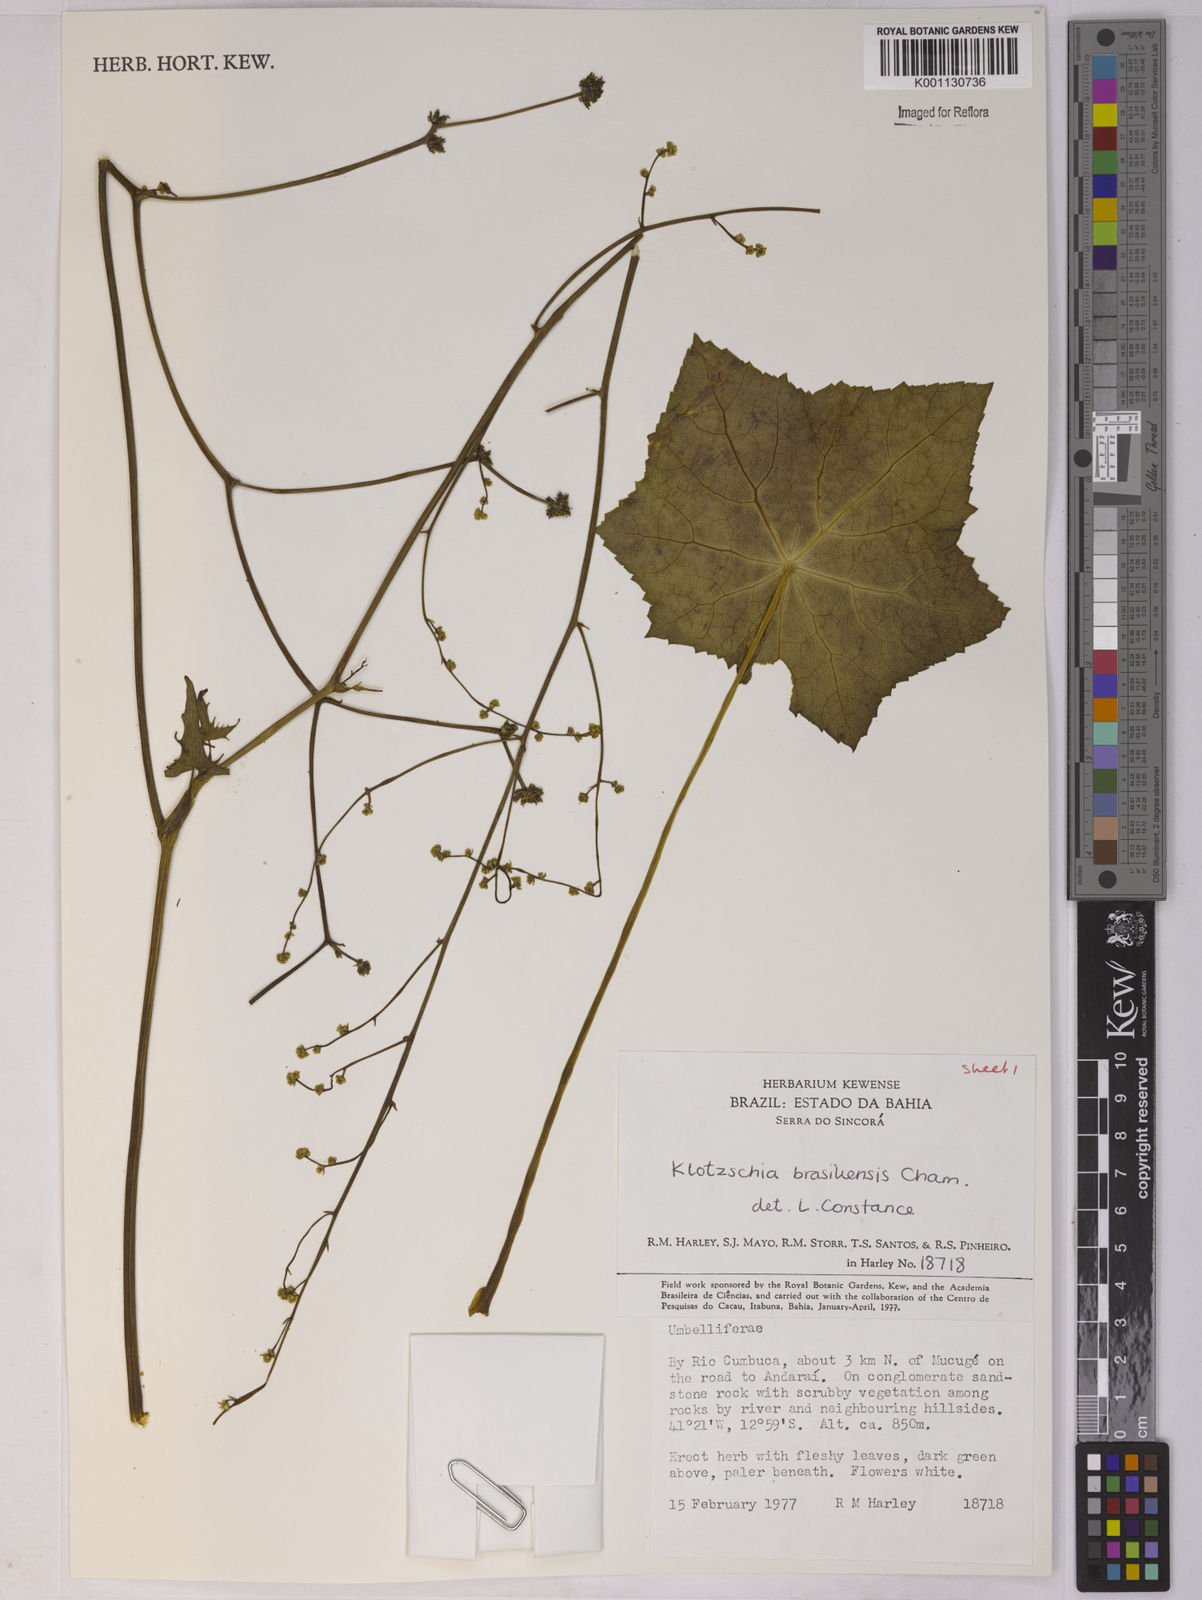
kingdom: Plantae
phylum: Tracheophyta
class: Magnoliopsida
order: Apiales
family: Apiaceae
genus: Klotzschia
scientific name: Klotzschia brasiliensis
